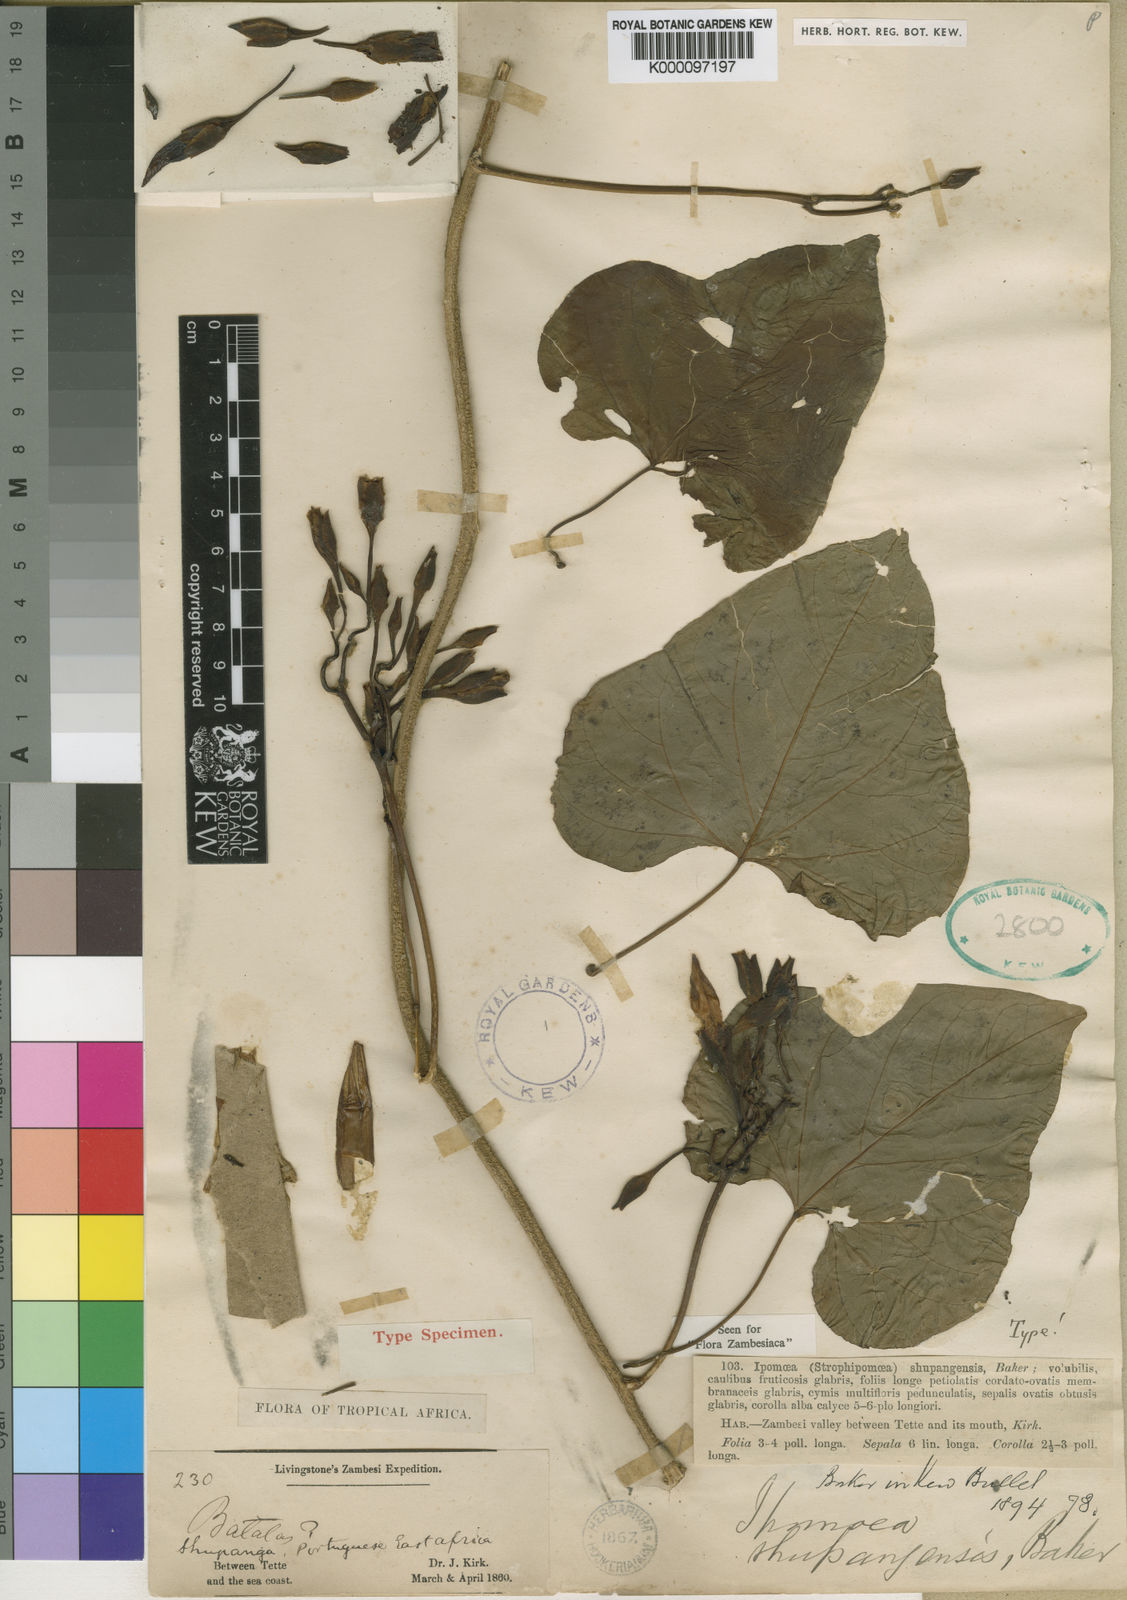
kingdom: Plantae
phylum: Tracheophyta
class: Magnoliopsida
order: Solanales
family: Convolvulaceae
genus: Ipomoea
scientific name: Ipomoea shupangensis
